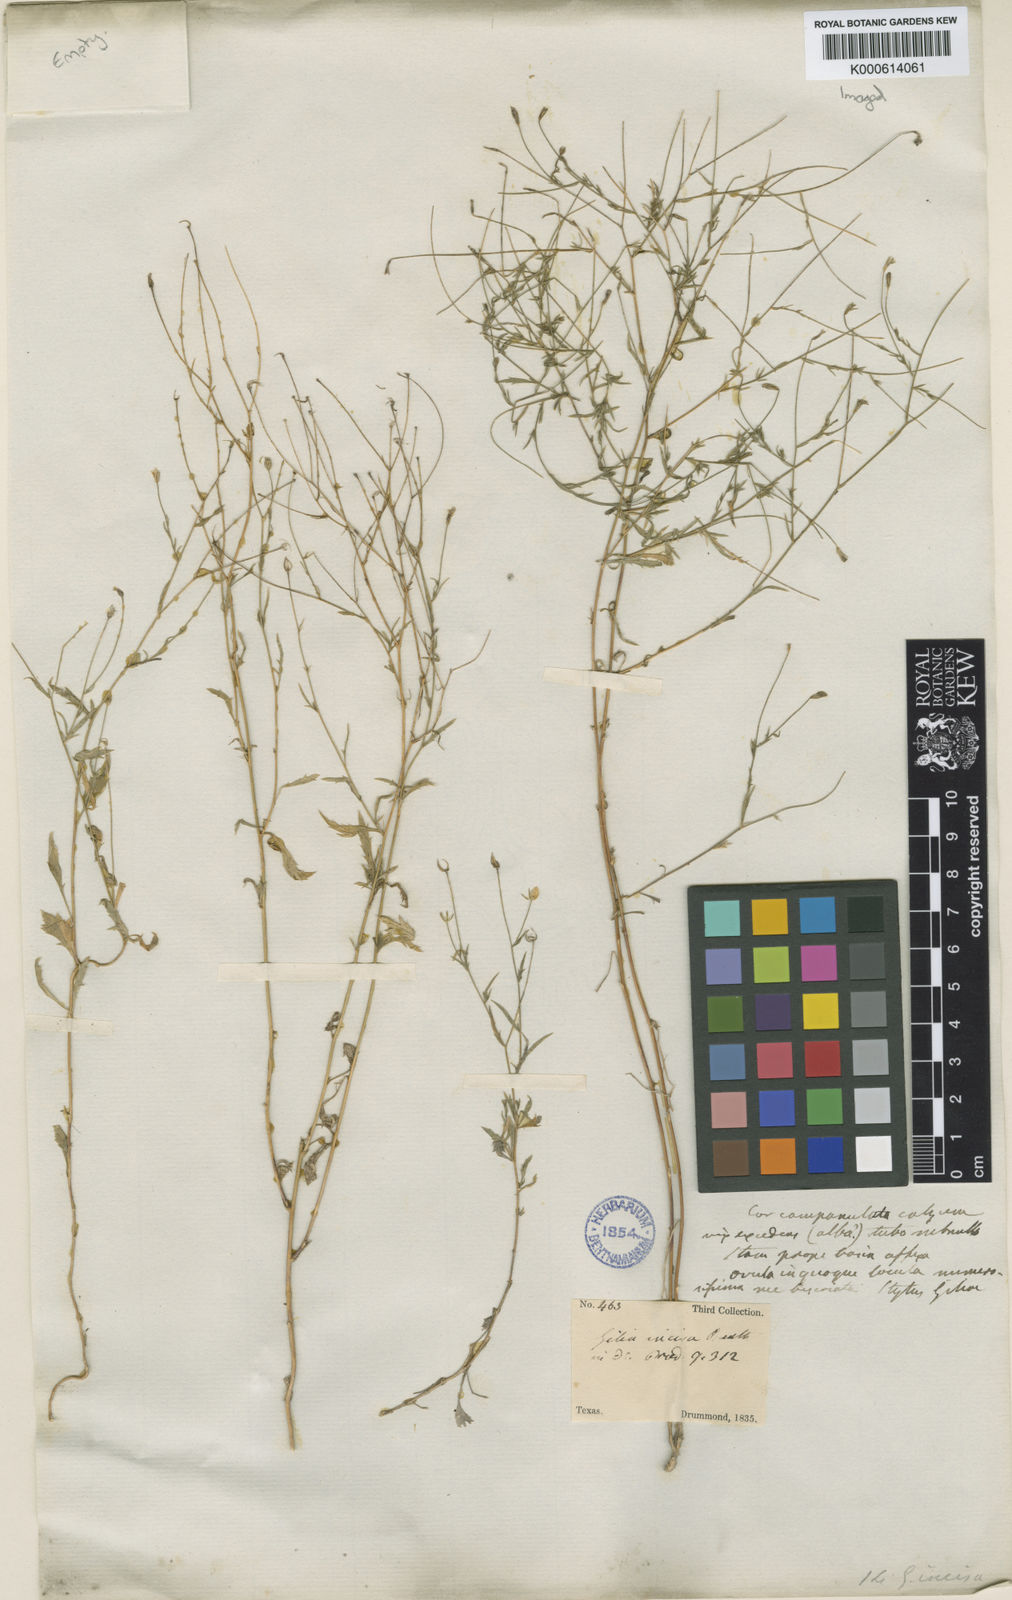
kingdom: Plantae
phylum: Tracheophyta
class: Magnoliopsida
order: Ericales
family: Polemoniaceae
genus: Giliastrum
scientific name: Giliastrum incisum
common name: Splitleaf gilia
